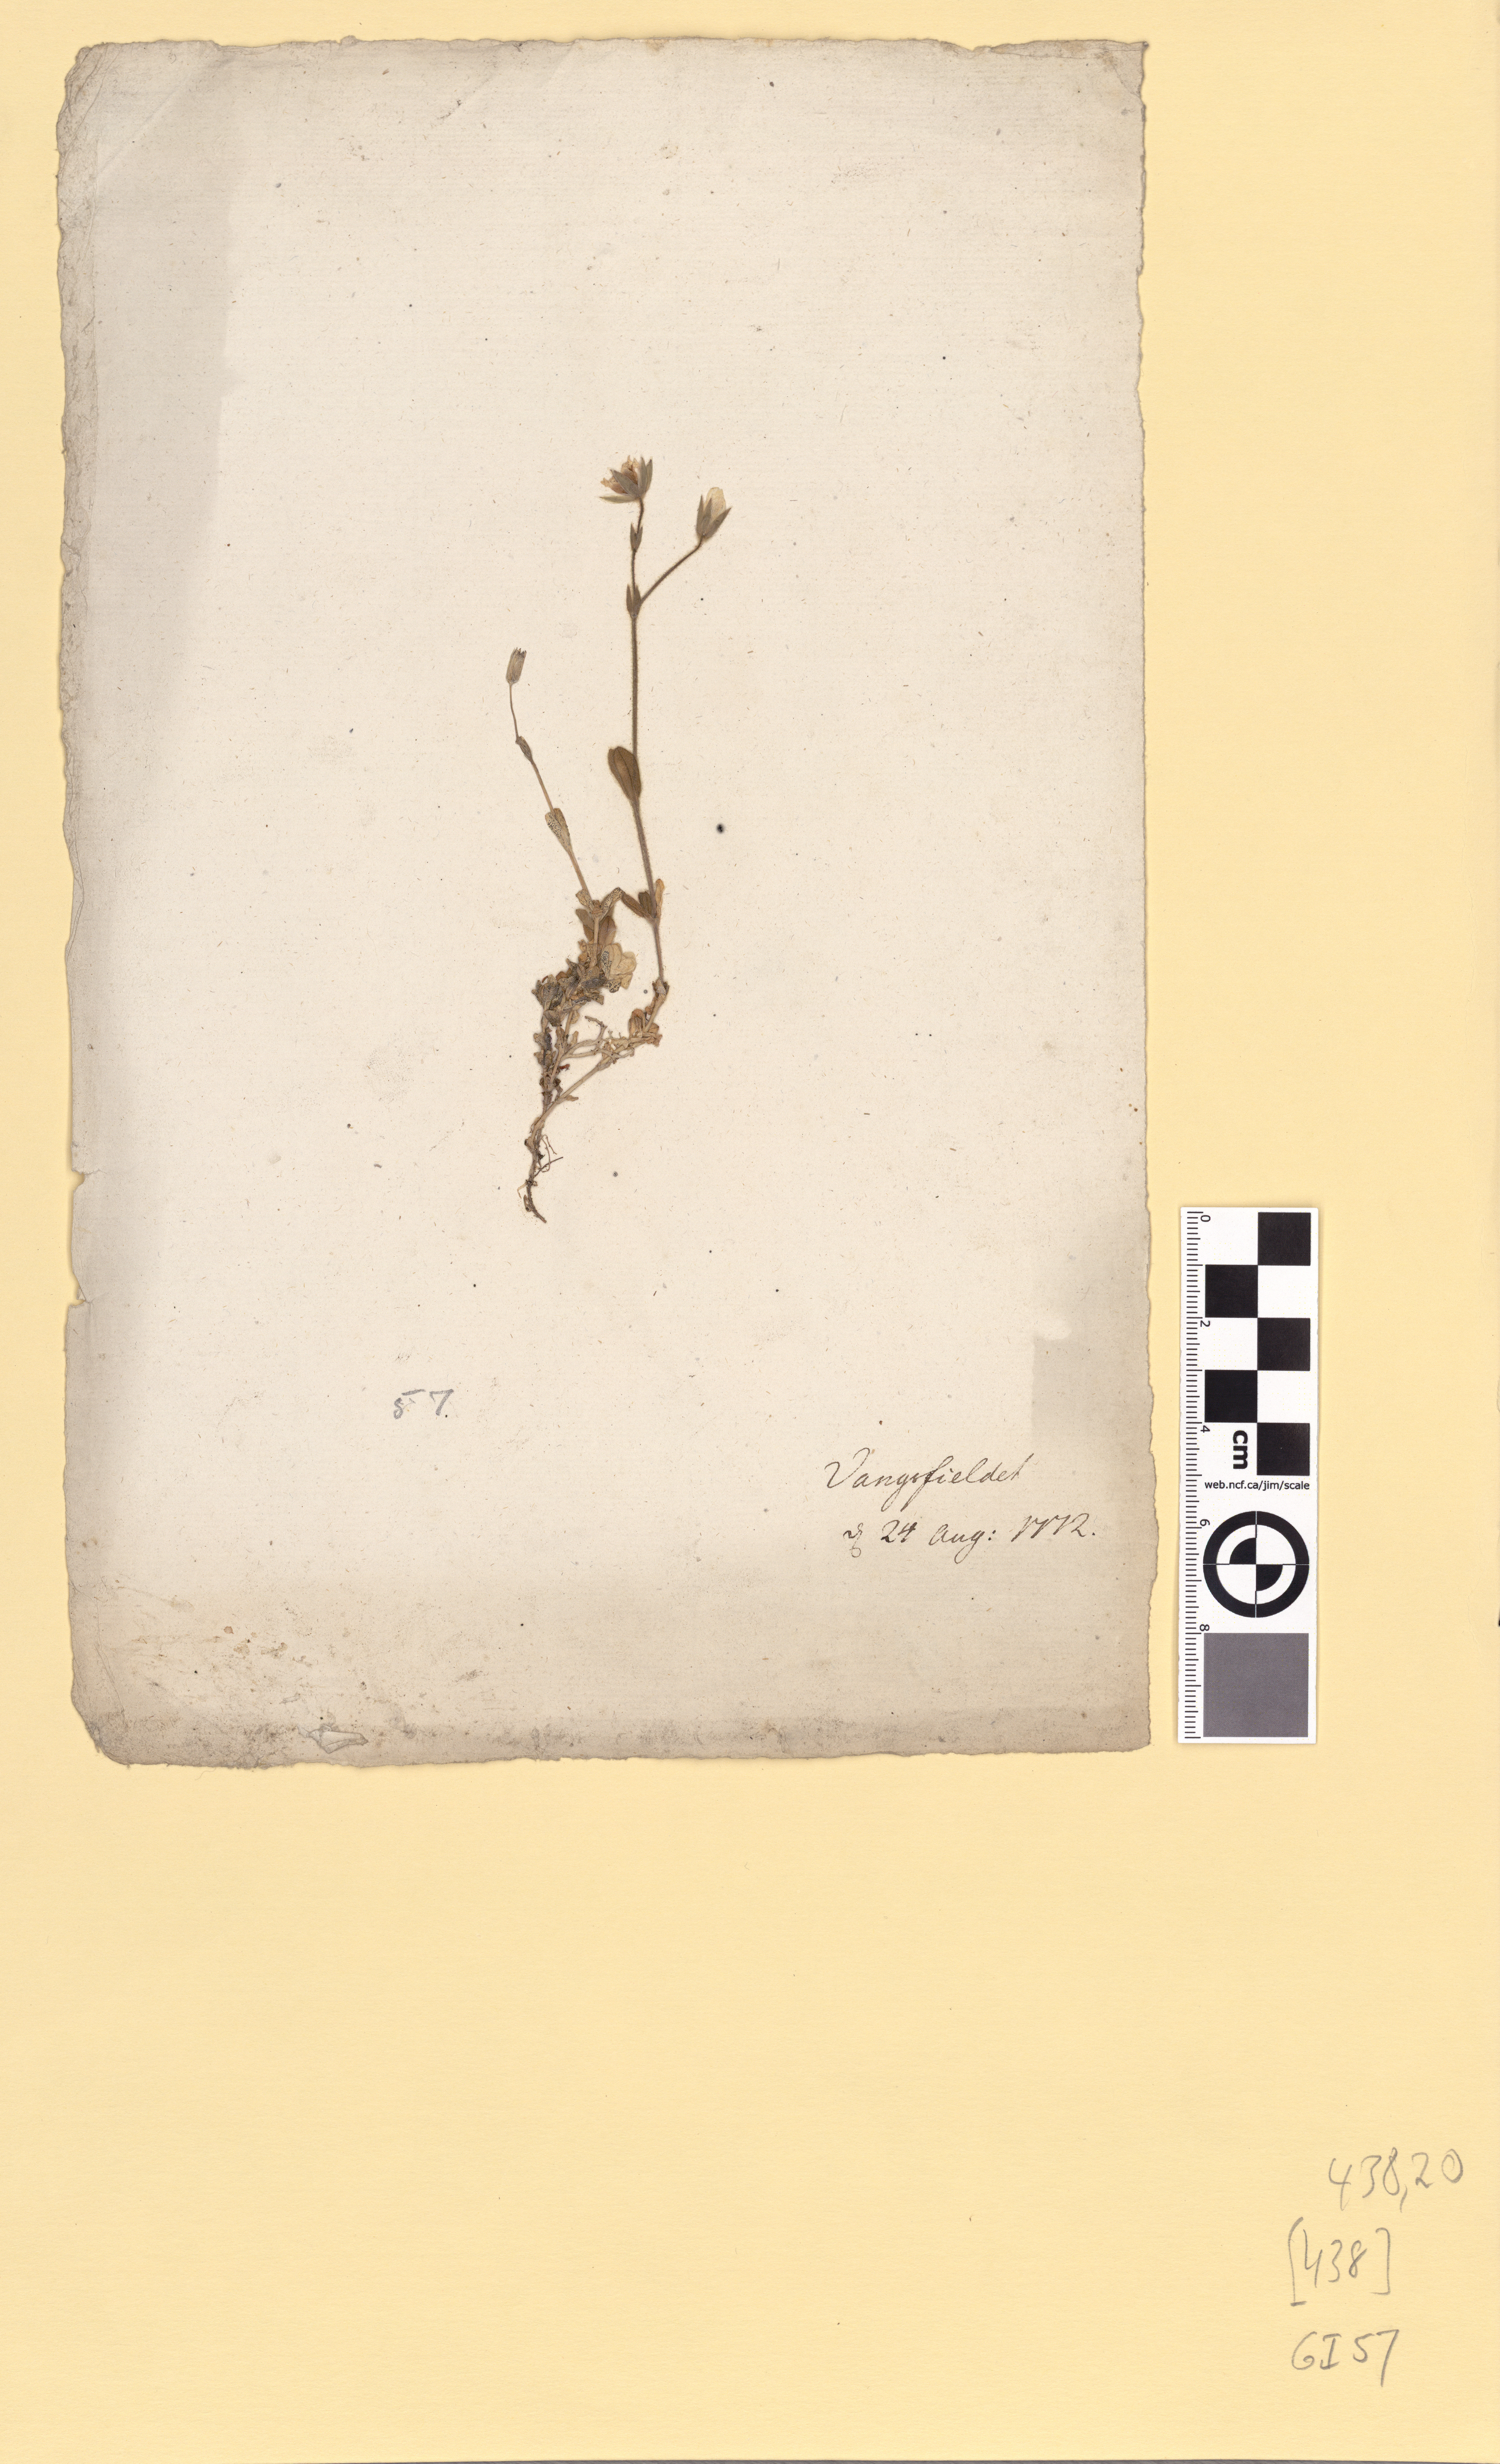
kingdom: Plantae
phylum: Tracheophyta
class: Magnoliopsida
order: Caryophyllales
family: Caryophyllaceae
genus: Cerastium
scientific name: Cerastium alpinum
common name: Alpine mouse-ear
